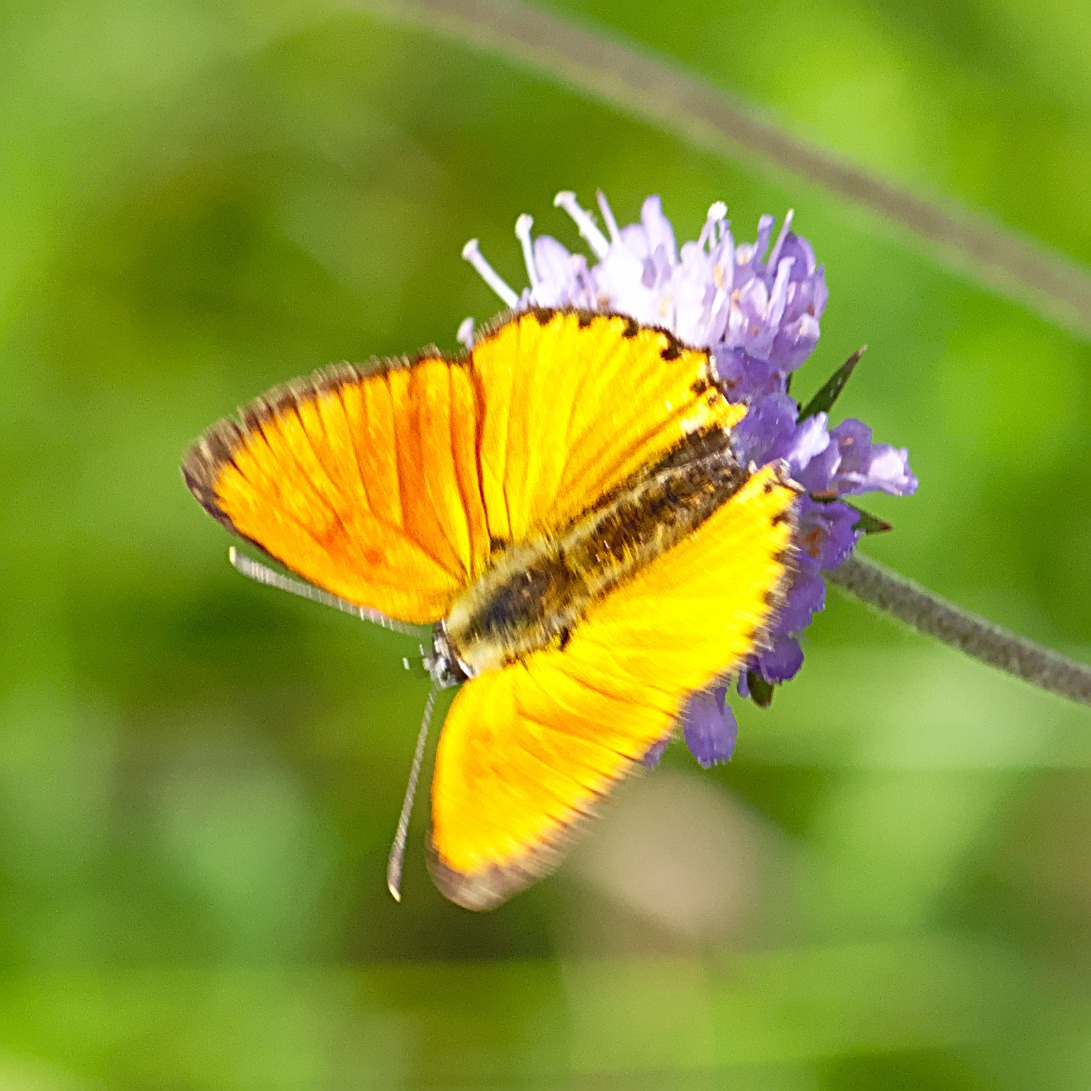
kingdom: Animalia
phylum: Arthropoda
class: Insecta
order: Lepidoptera
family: Lycaenidae
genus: Lycaena
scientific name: Lycaena virgaureae
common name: Dukatsommerfugl
